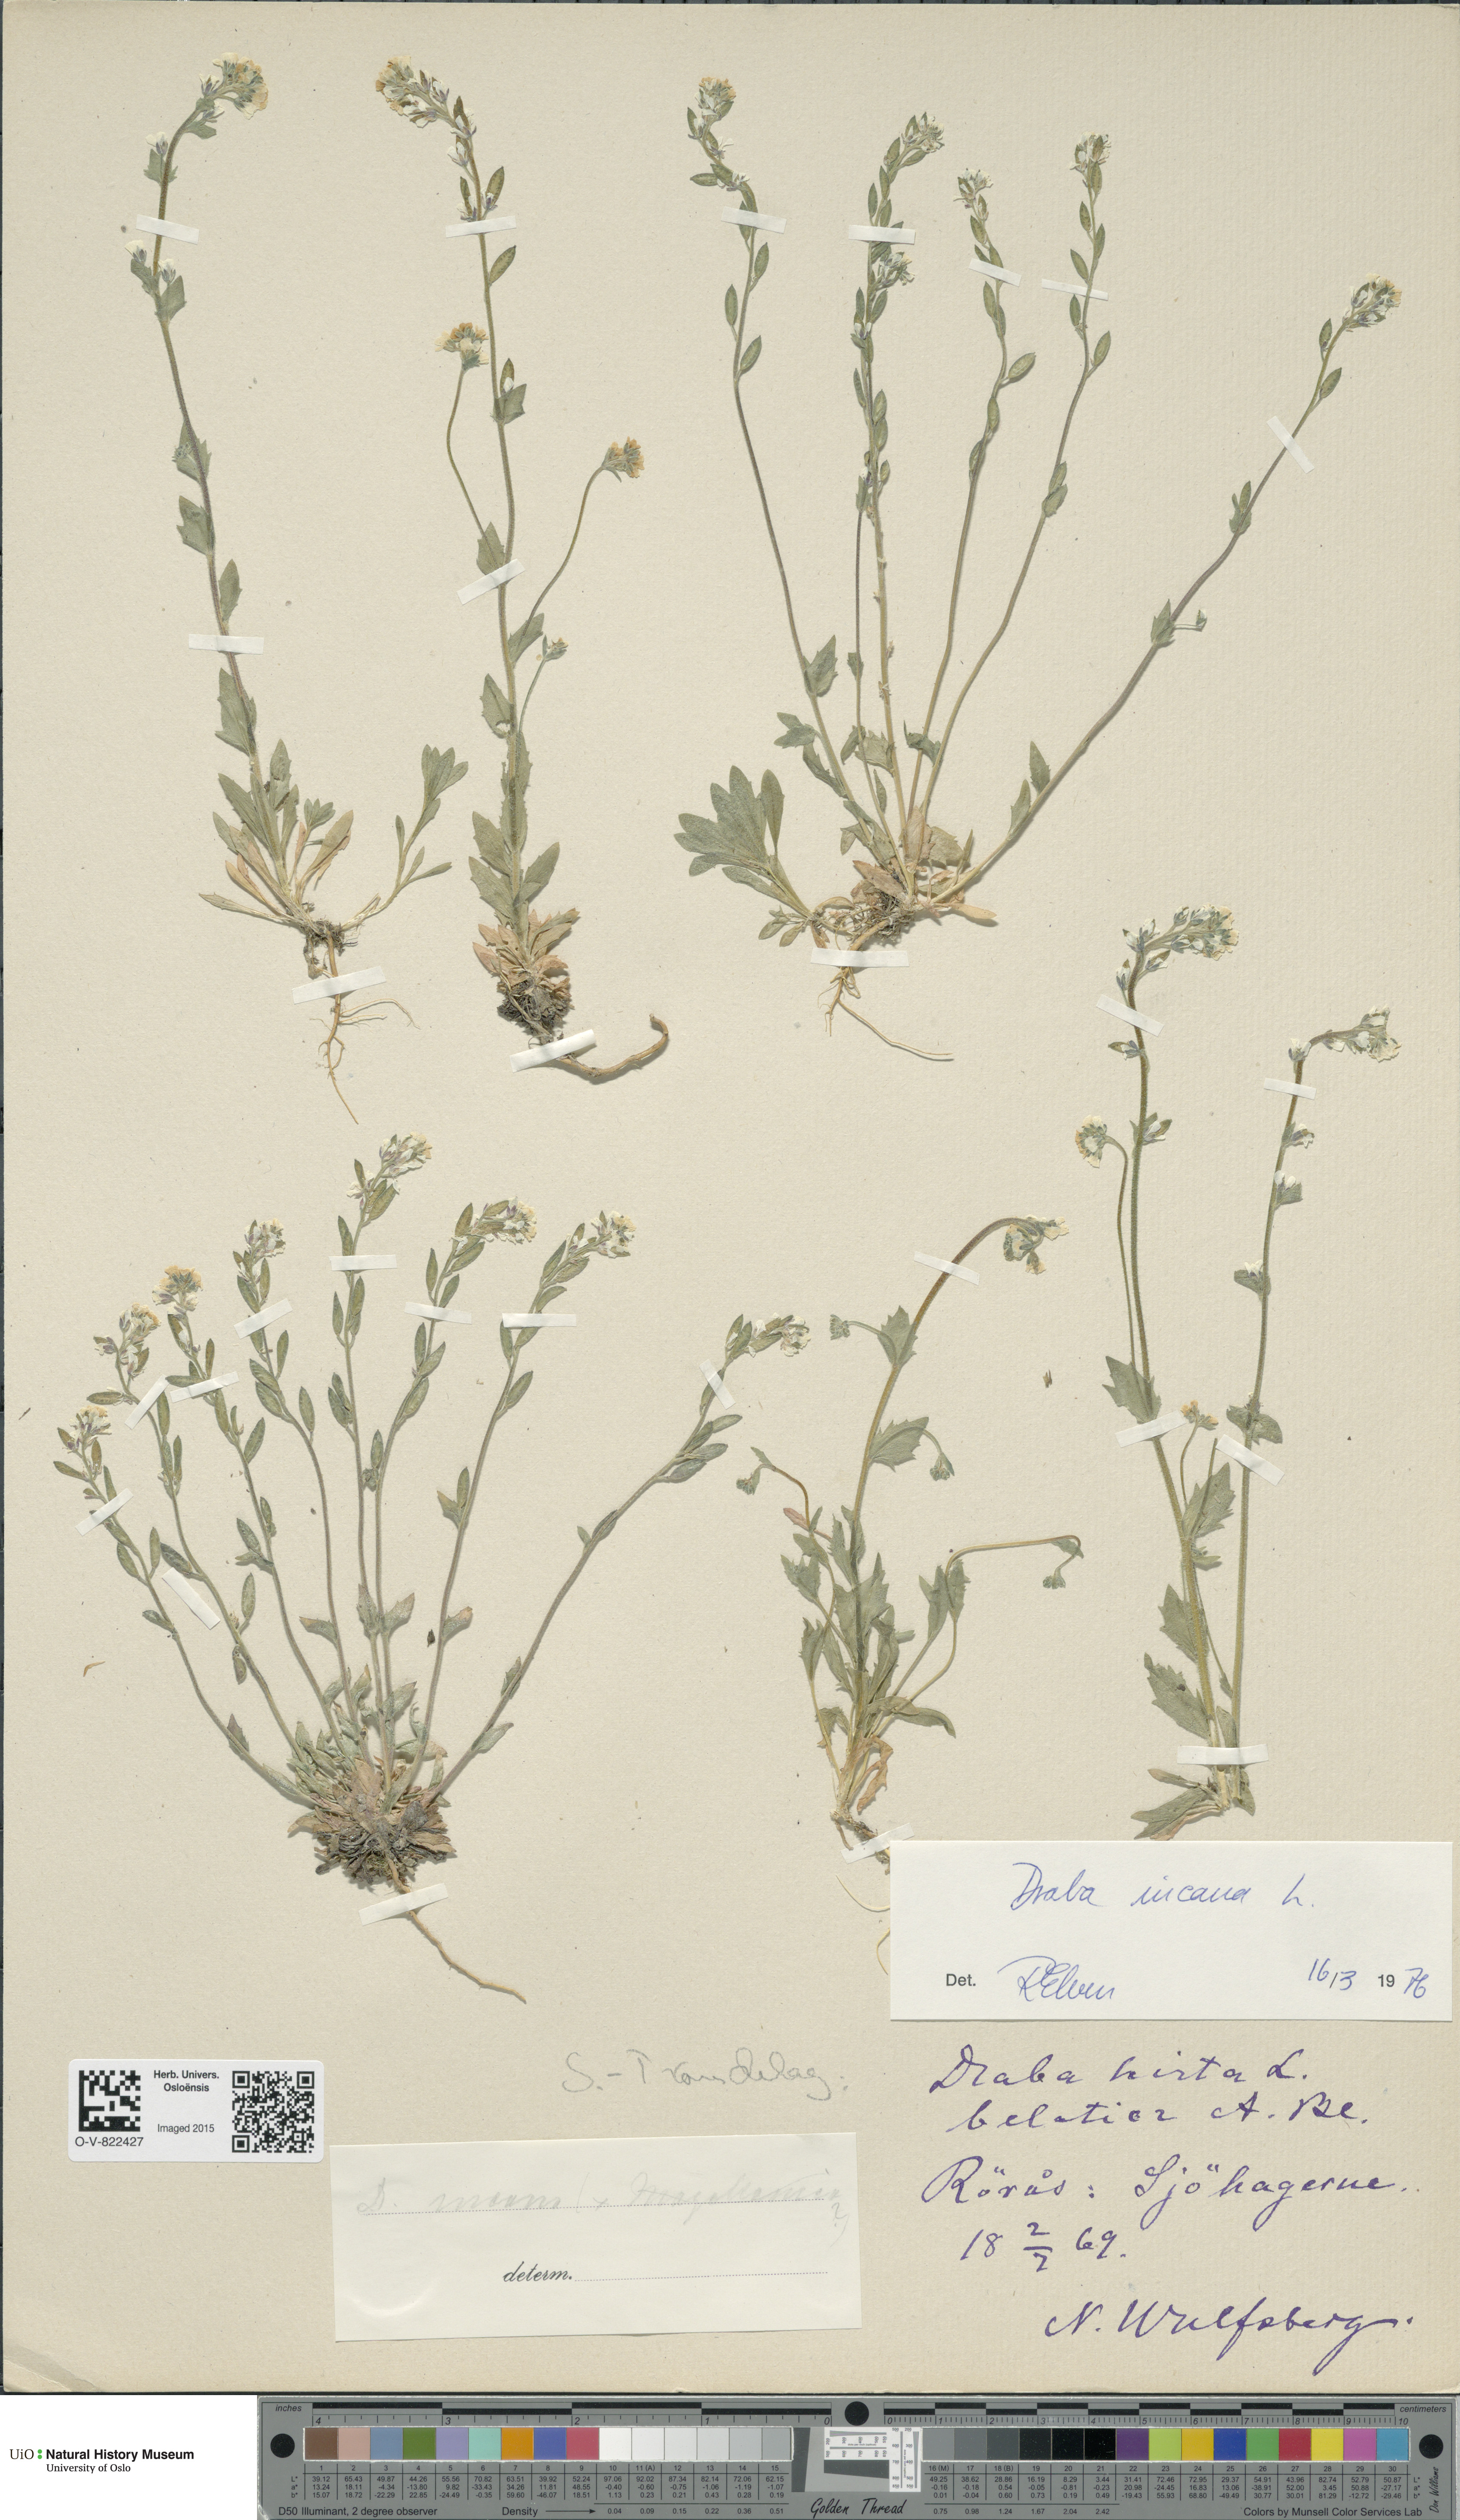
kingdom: Plantae
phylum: Tracheophyta
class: Magnoliopsida
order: Brassicales
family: Brassicaceae
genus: Draba
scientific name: Draba incana
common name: Hoary whitlow-grass
